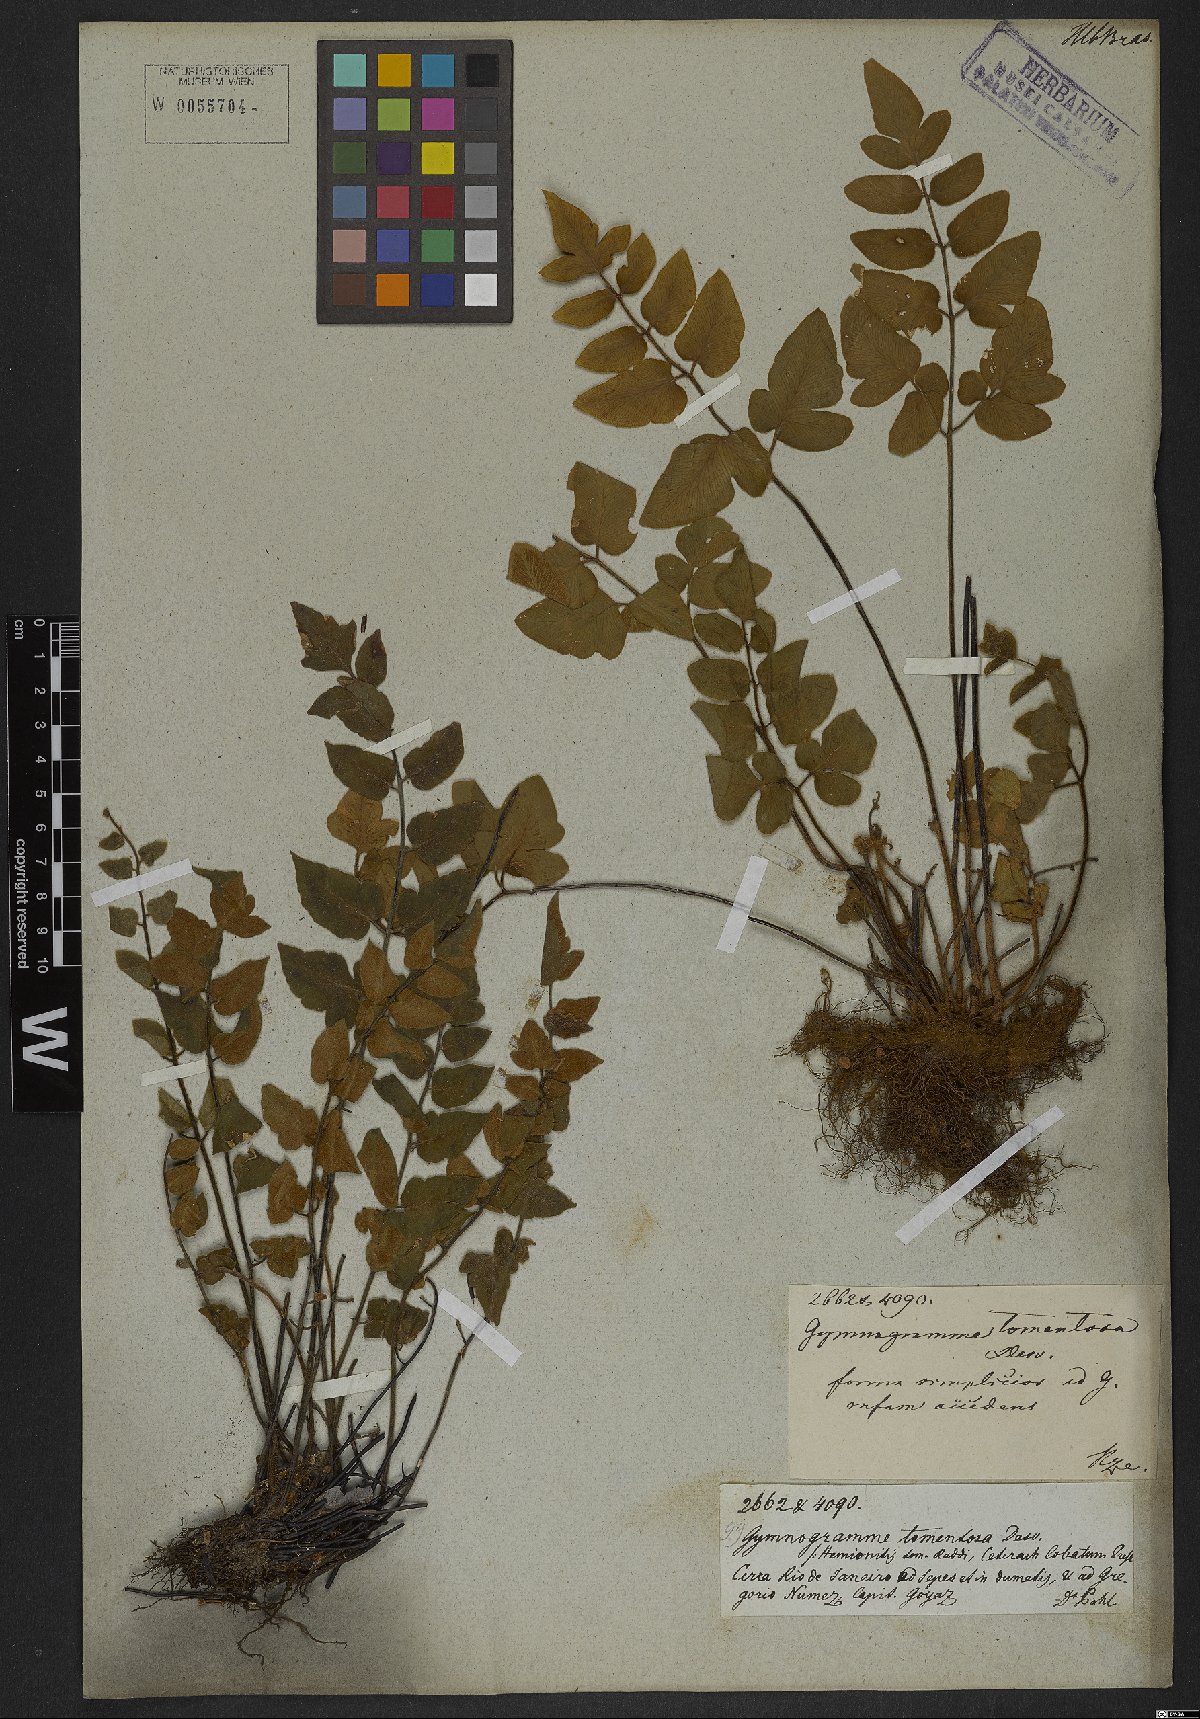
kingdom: Plantae
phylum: Tracheophyta
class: Polypodiopsida
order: Polypodiales
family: Pteridaceae
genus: Hemionitis
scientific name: Hemionitis tomentosa
